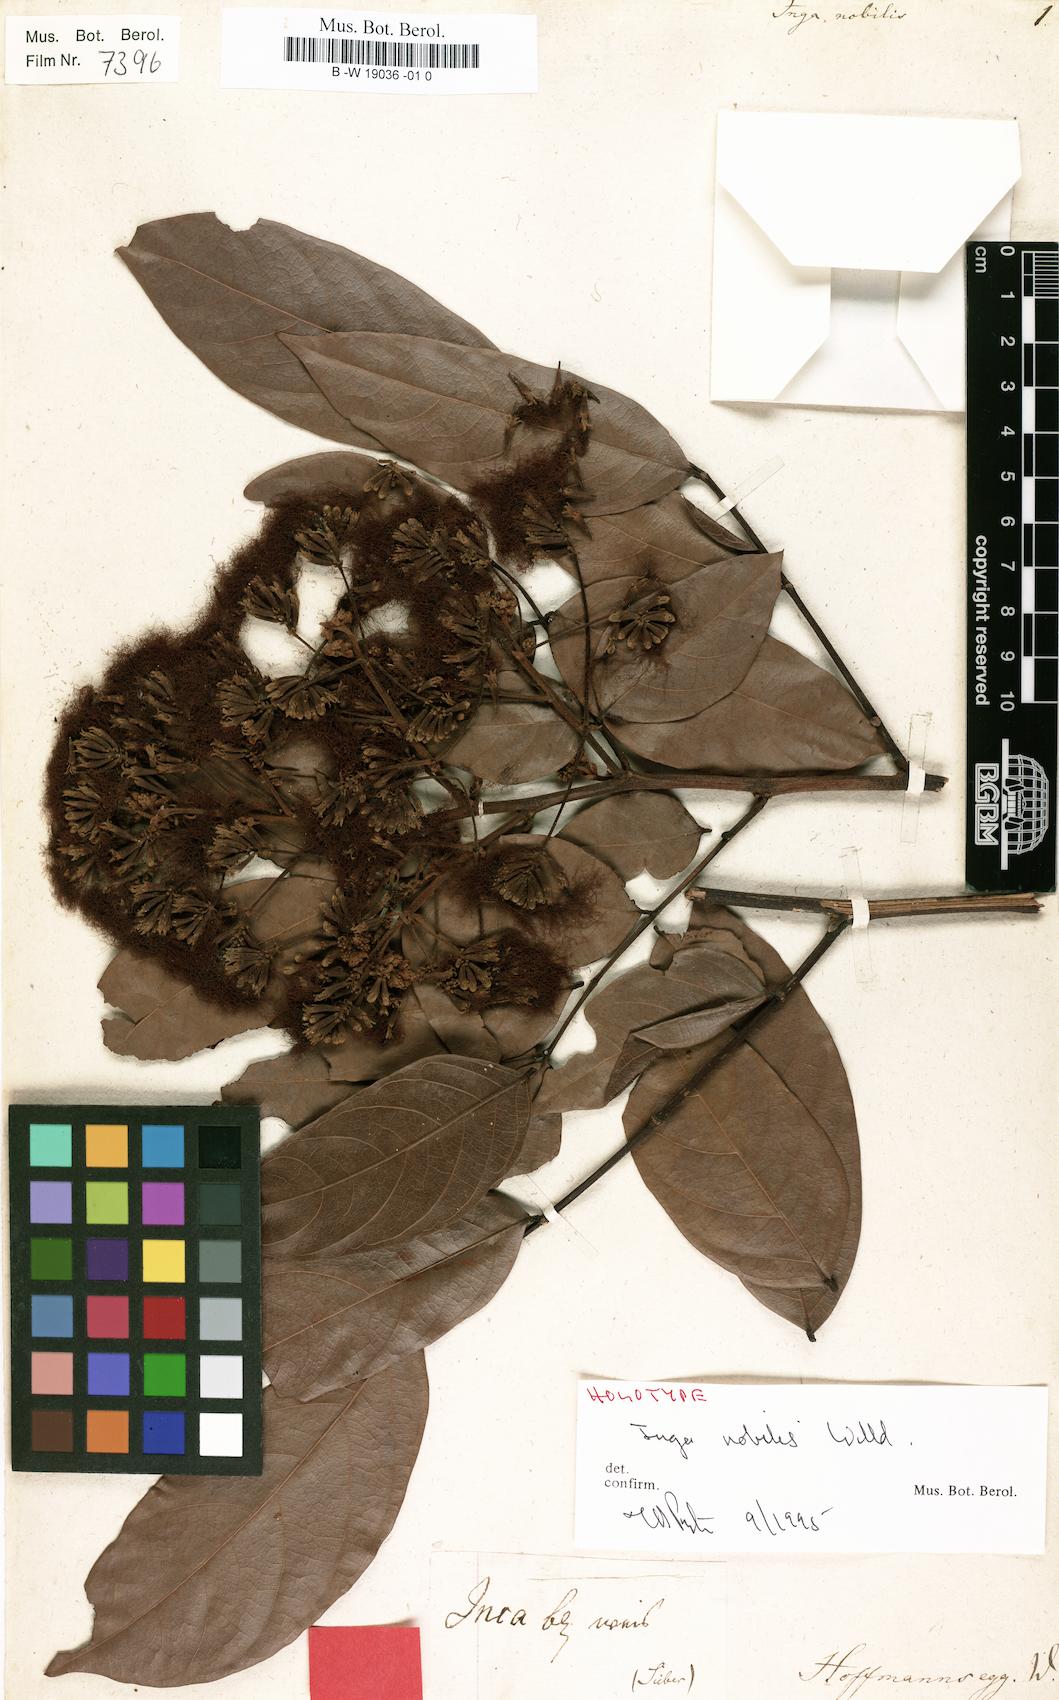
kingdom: Plantae
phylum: Tracheophyta
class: Magnoliopsida
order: Fabales
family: Fabaceae
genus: Inga
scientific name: Inga nobilis
